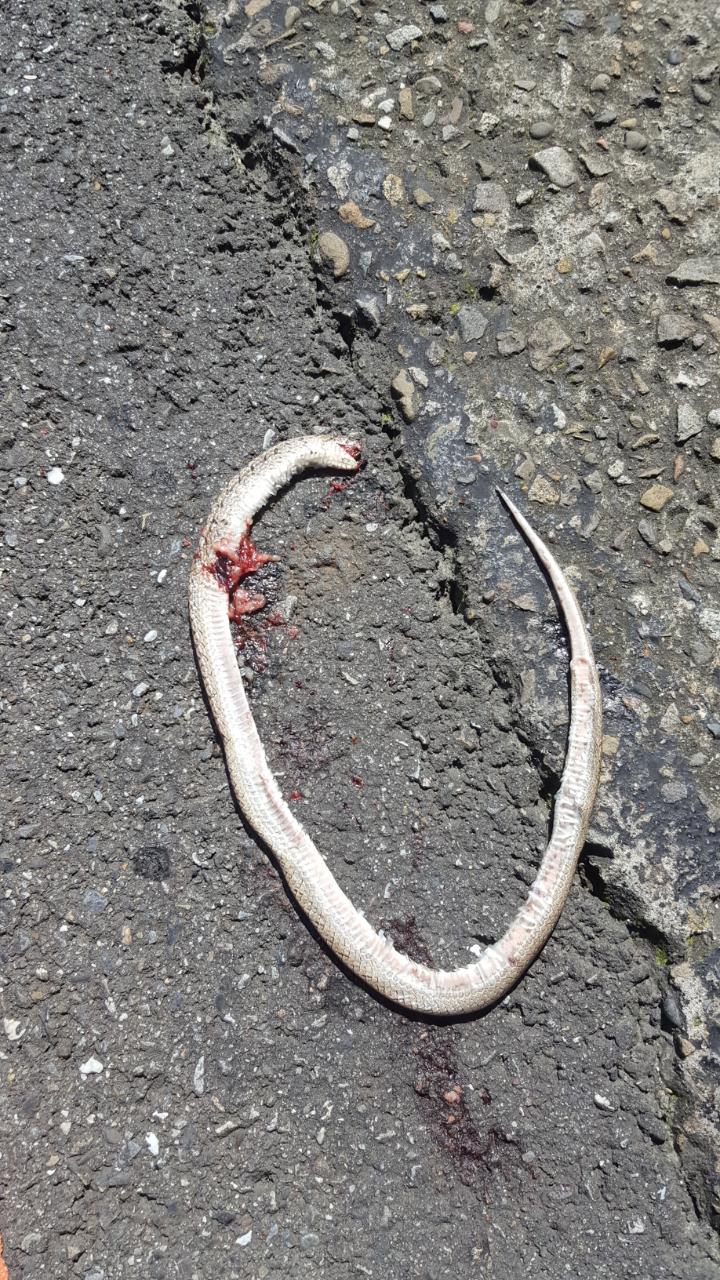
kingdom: Animalia
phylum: Chordata
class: Squamata
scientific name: Squamata
